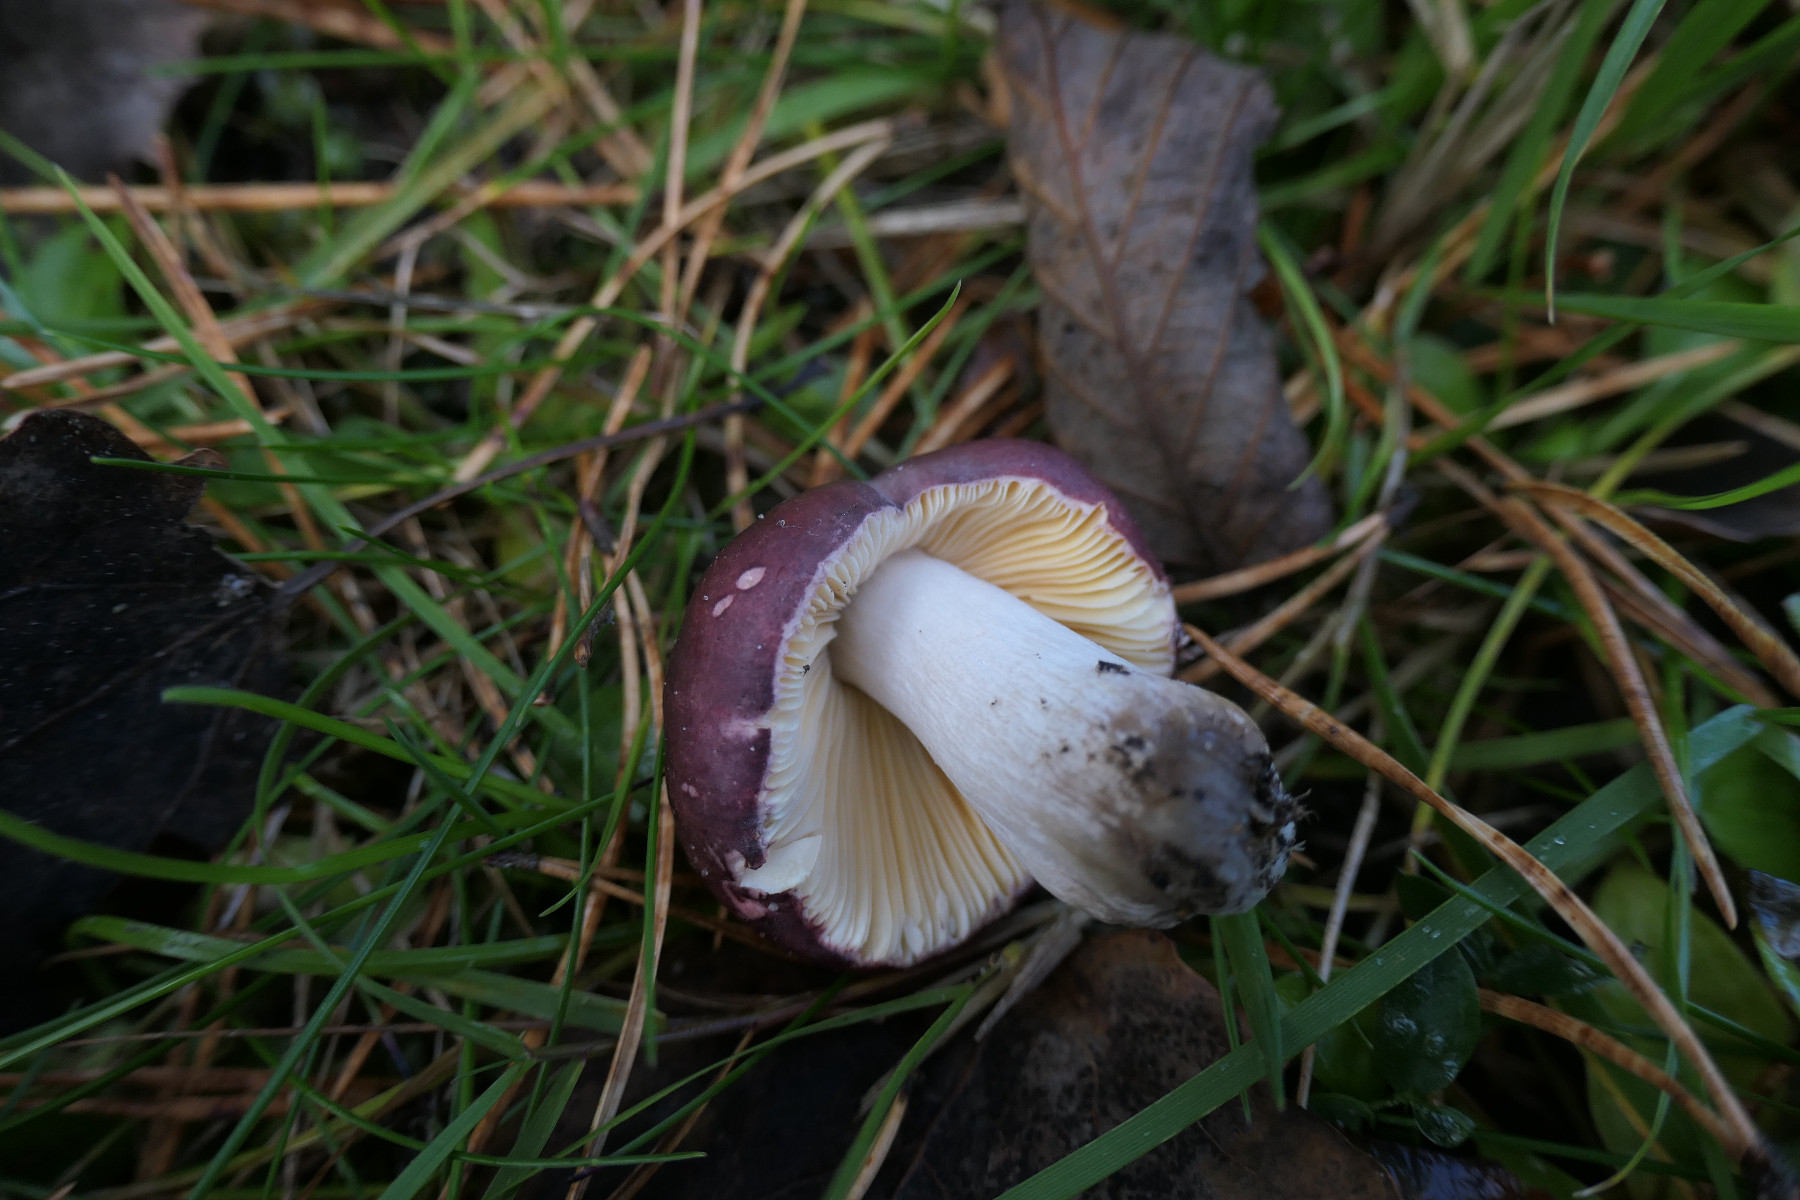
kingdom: Fungi
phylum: Basidiomycota
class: Agaricomycetes
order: Russulales
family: Russulaceae
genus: Russula
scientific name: Russula cessans
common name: fyrre-skørhat
